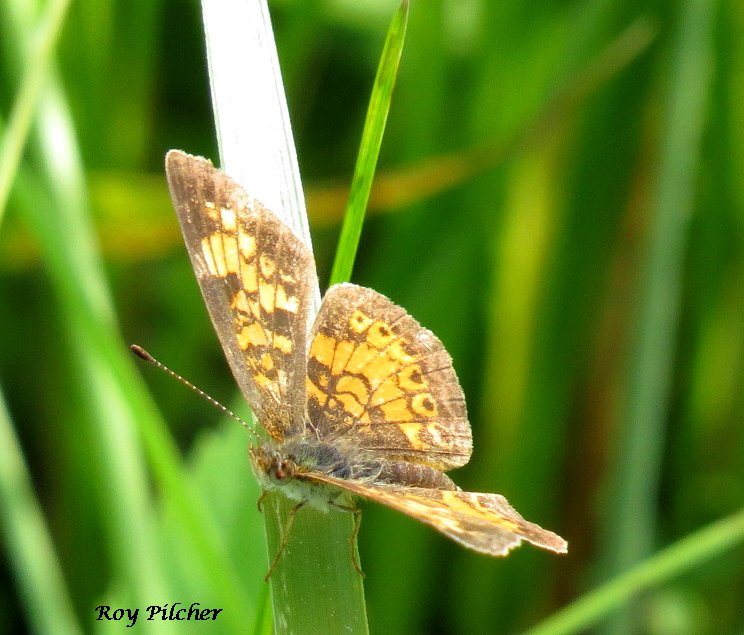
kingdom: Animalia
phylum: Arthropoda
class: Insecta
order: Lepidoptera
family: Nymphalidae
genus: Phyciodes
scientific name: Phyciodes tharos
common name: Northern Crescent
